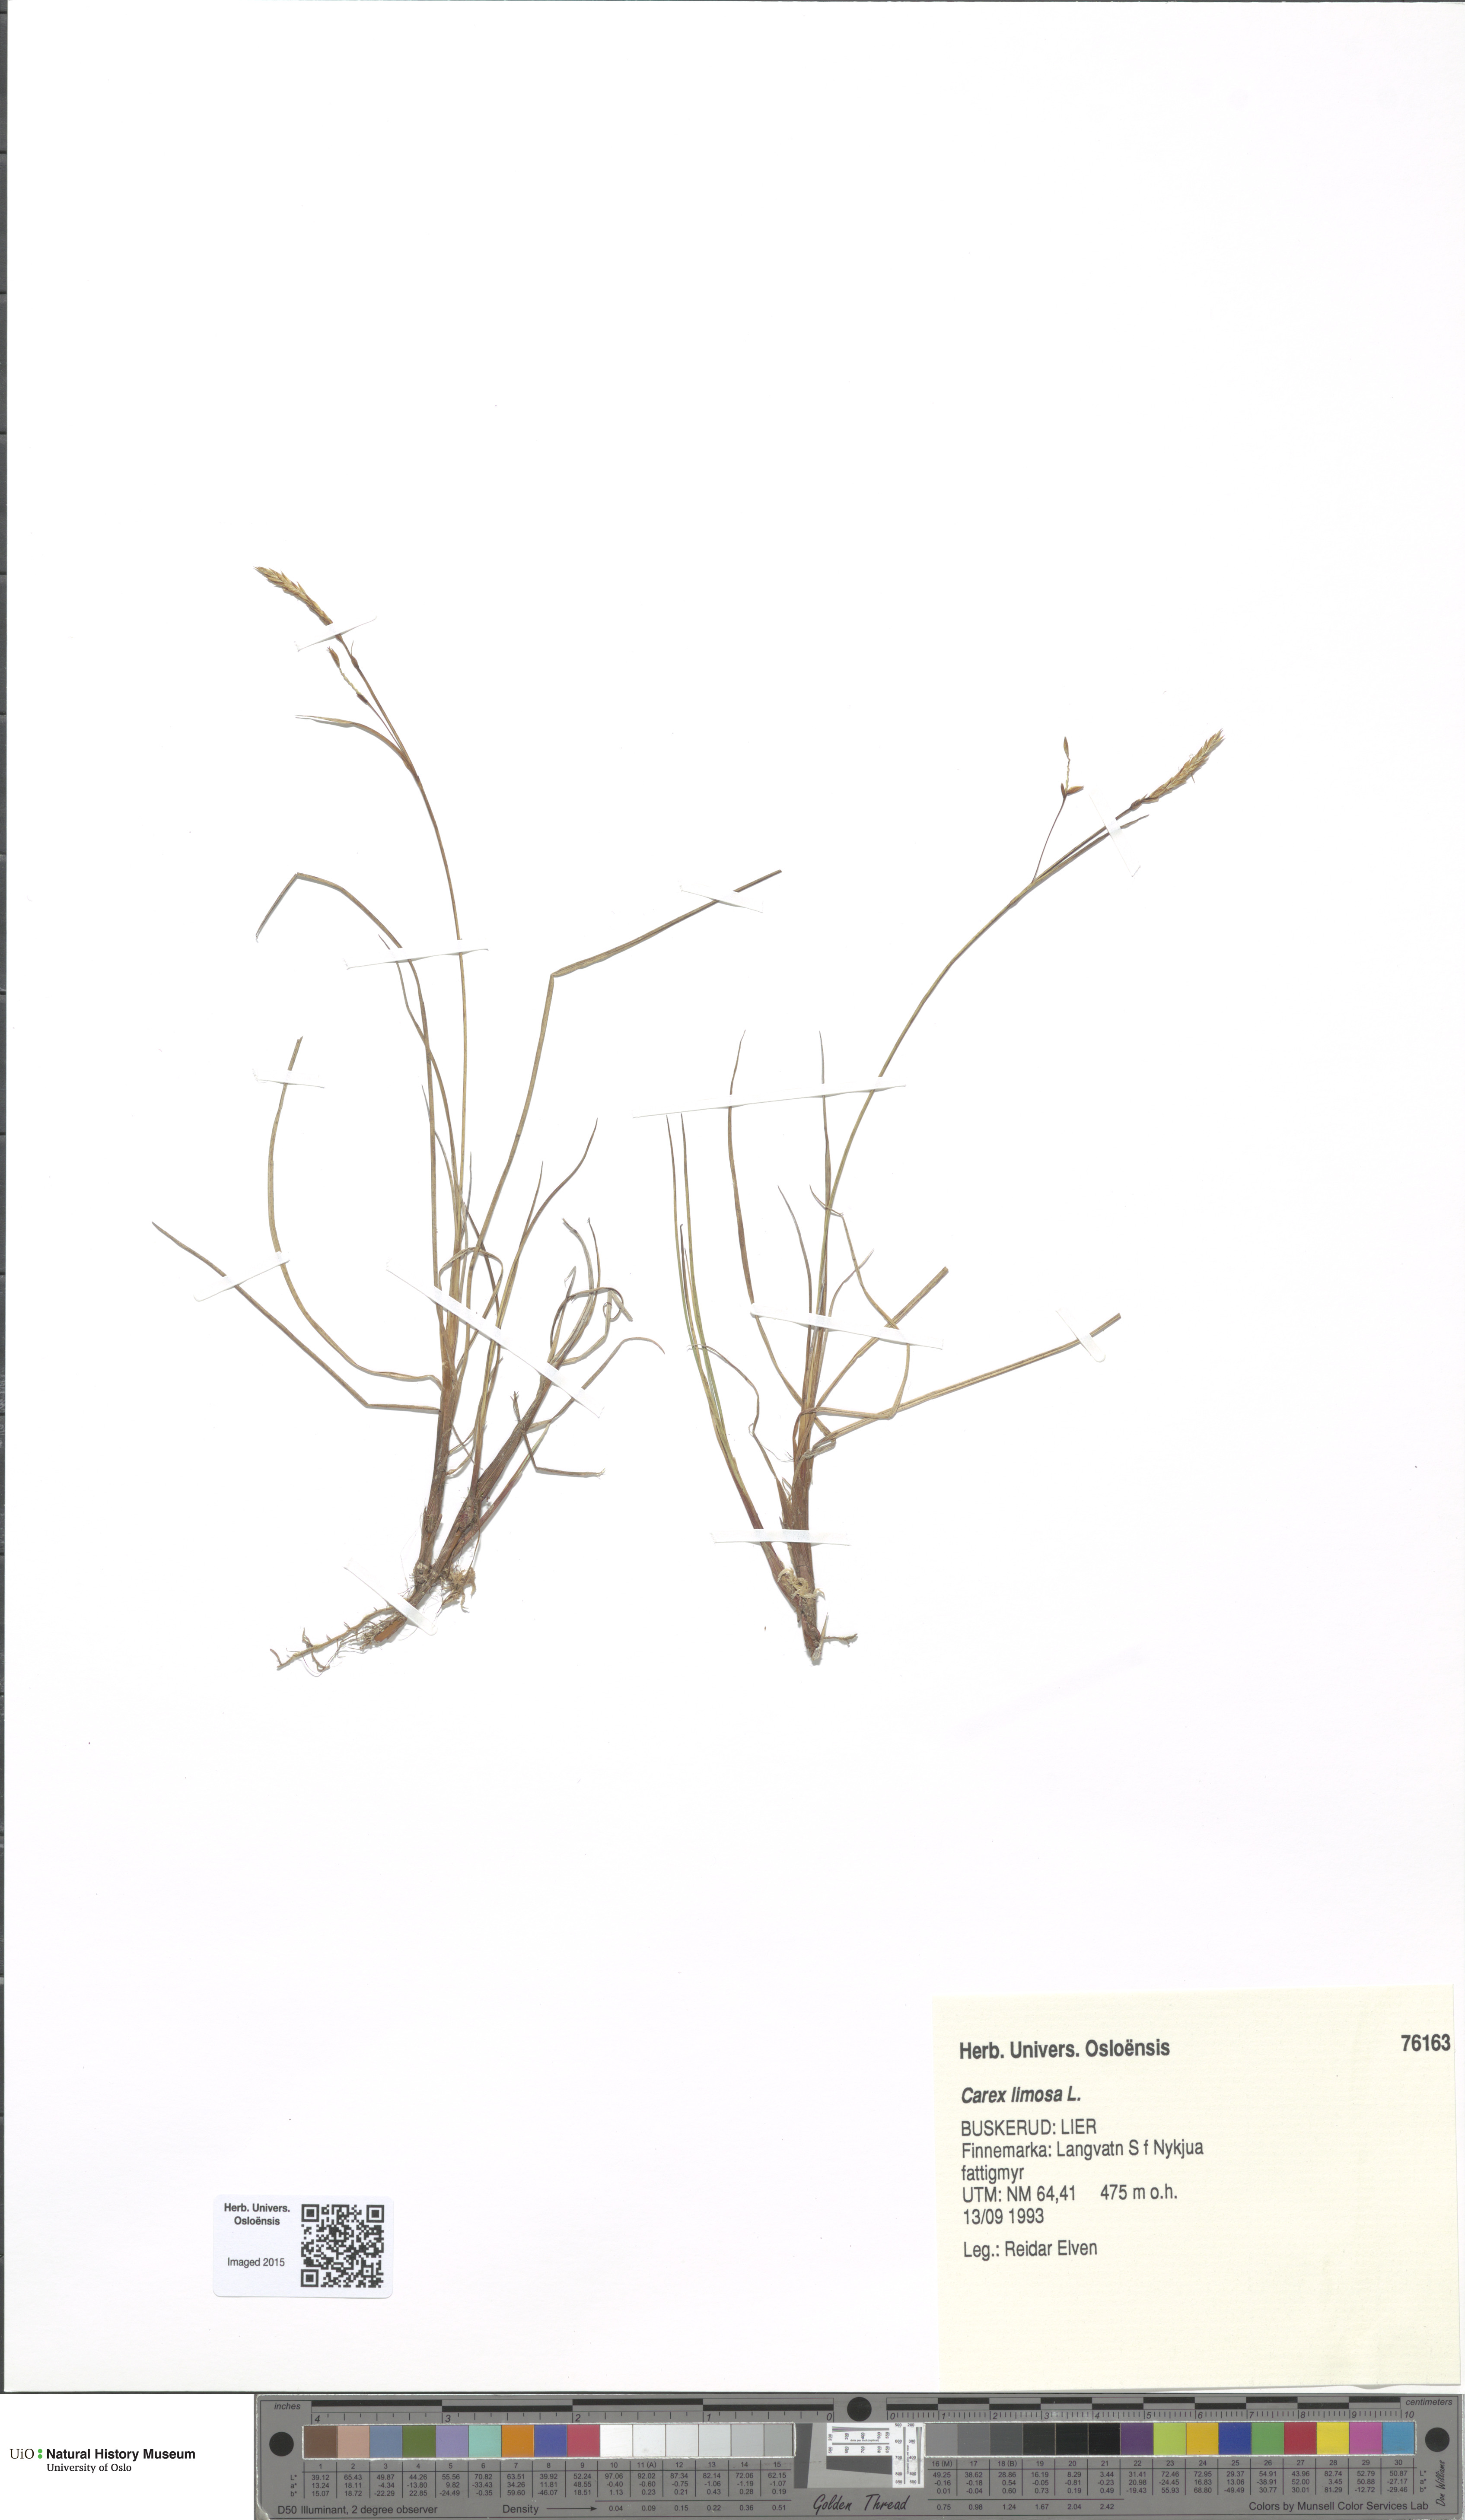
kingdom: Plantae
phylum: Tracheophyta
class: Liliopsida
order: Poales
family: Cyperaceae
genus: Carex
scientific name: Carex limosa
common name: Bog sedge
